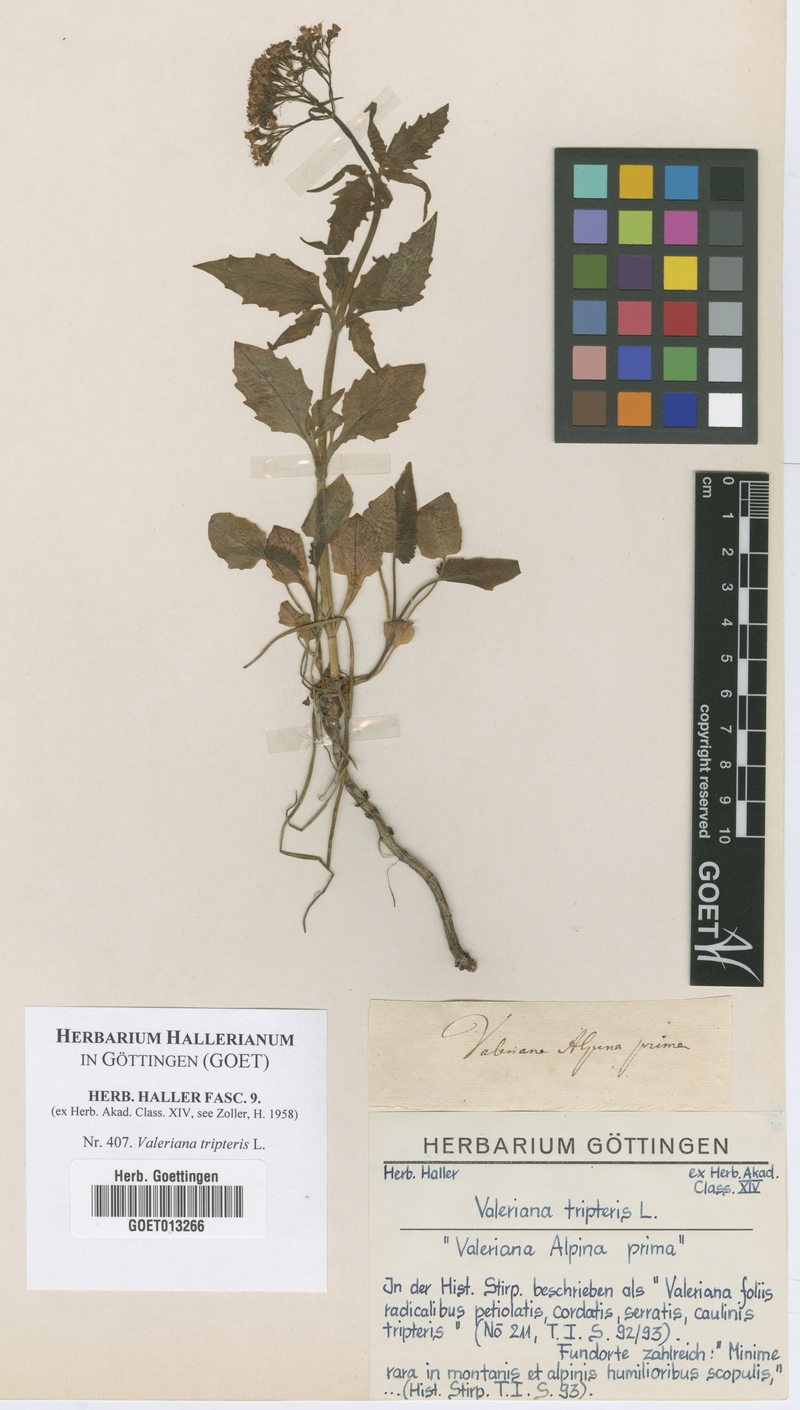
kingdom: Plantae
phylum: Tracheophyta
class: Magnoliopsida
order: Dipsacales
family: Caprifoliaceae
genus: Valeriana
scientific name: Valeriana tripteris
